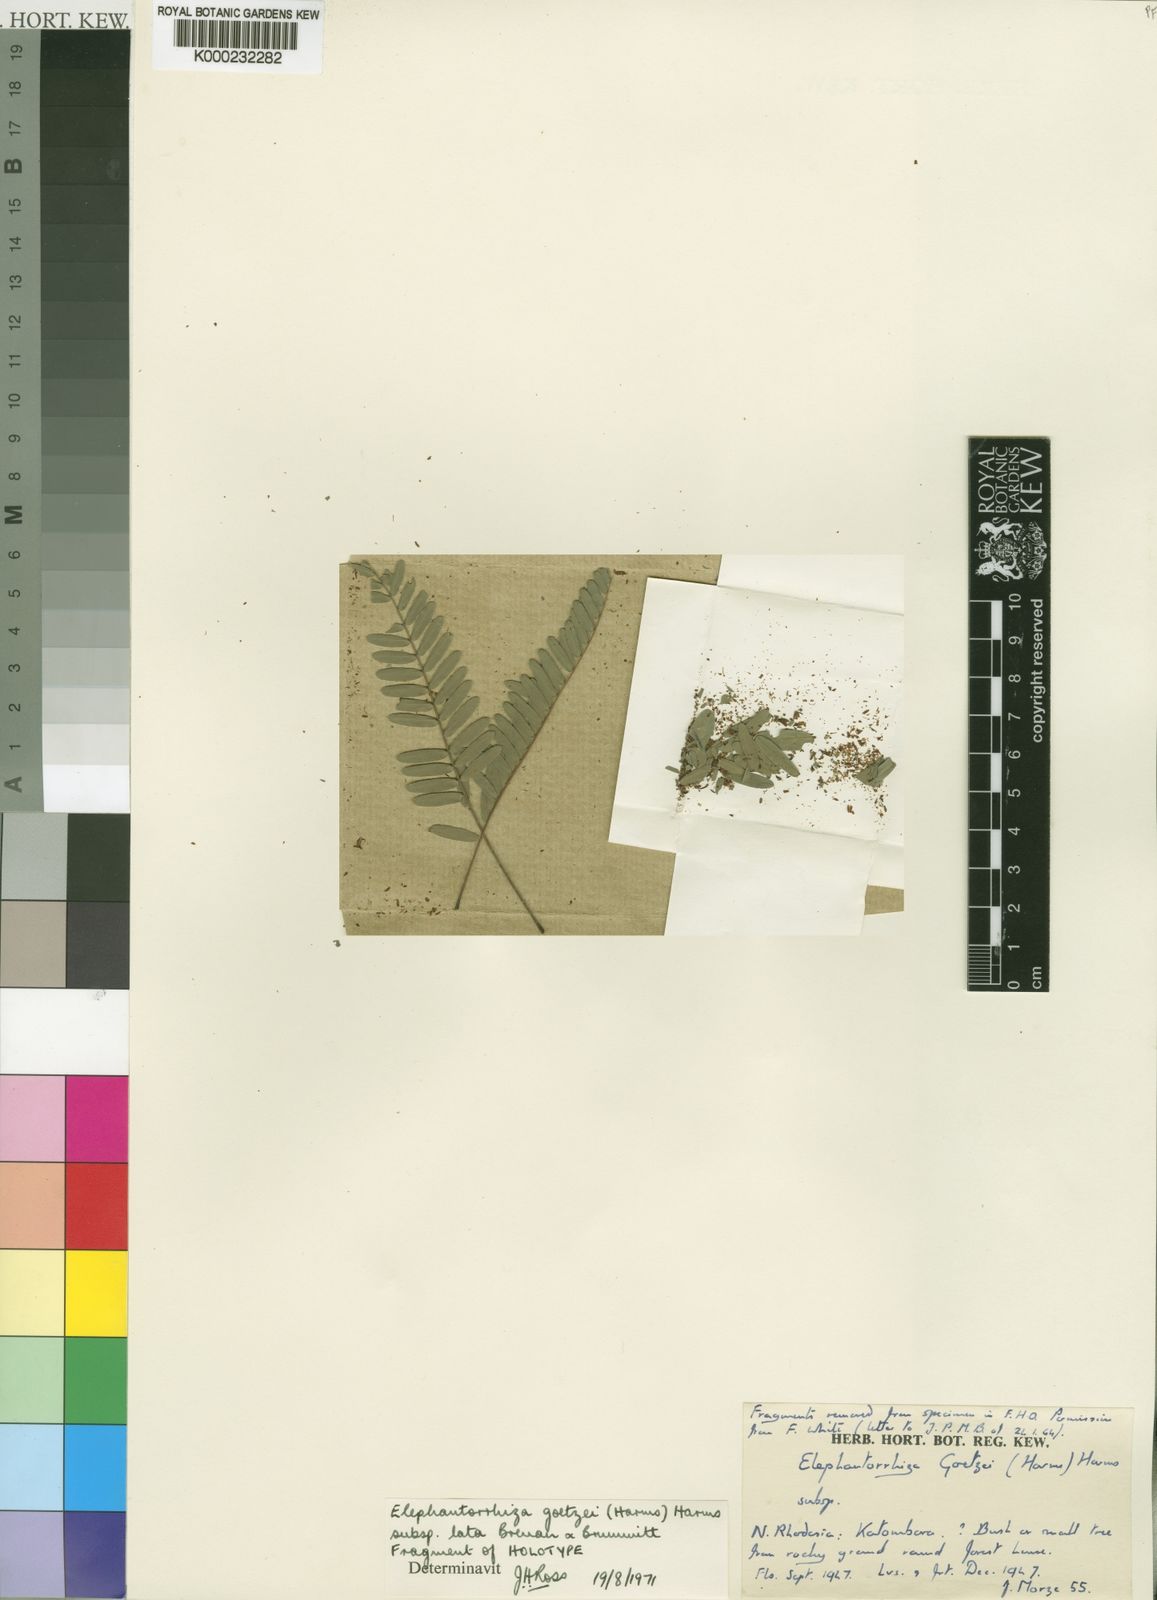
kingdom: Plantae
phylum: Tracheophyta
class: Magnoliopsida
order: Fabales
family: Fabaceae
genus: Elephantorrhiza
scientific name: Elephantorrhiza goetzei
